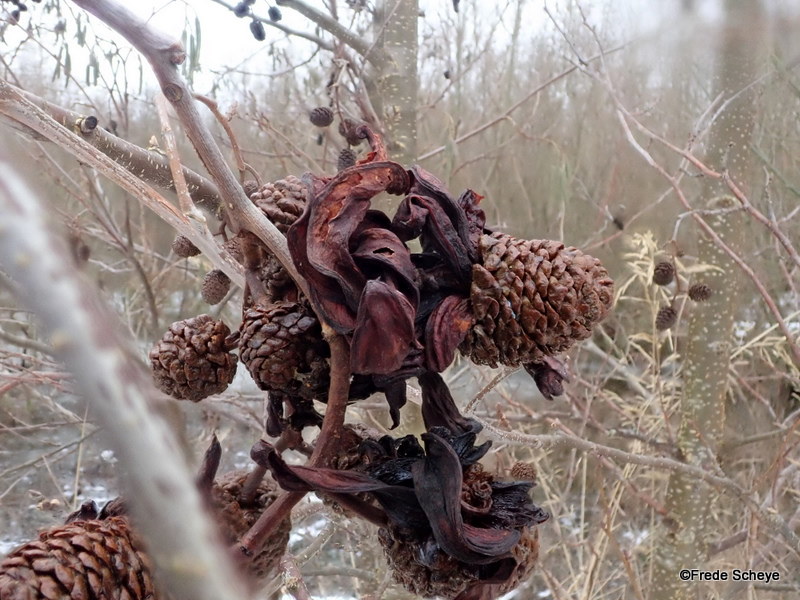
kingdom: Fungi
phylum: Ascomycota
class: Taphrinomycetes
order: Taphrinales
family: Taphrinaceae
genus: Taphrina
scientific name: Taphrina alni
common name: Alder tongue
